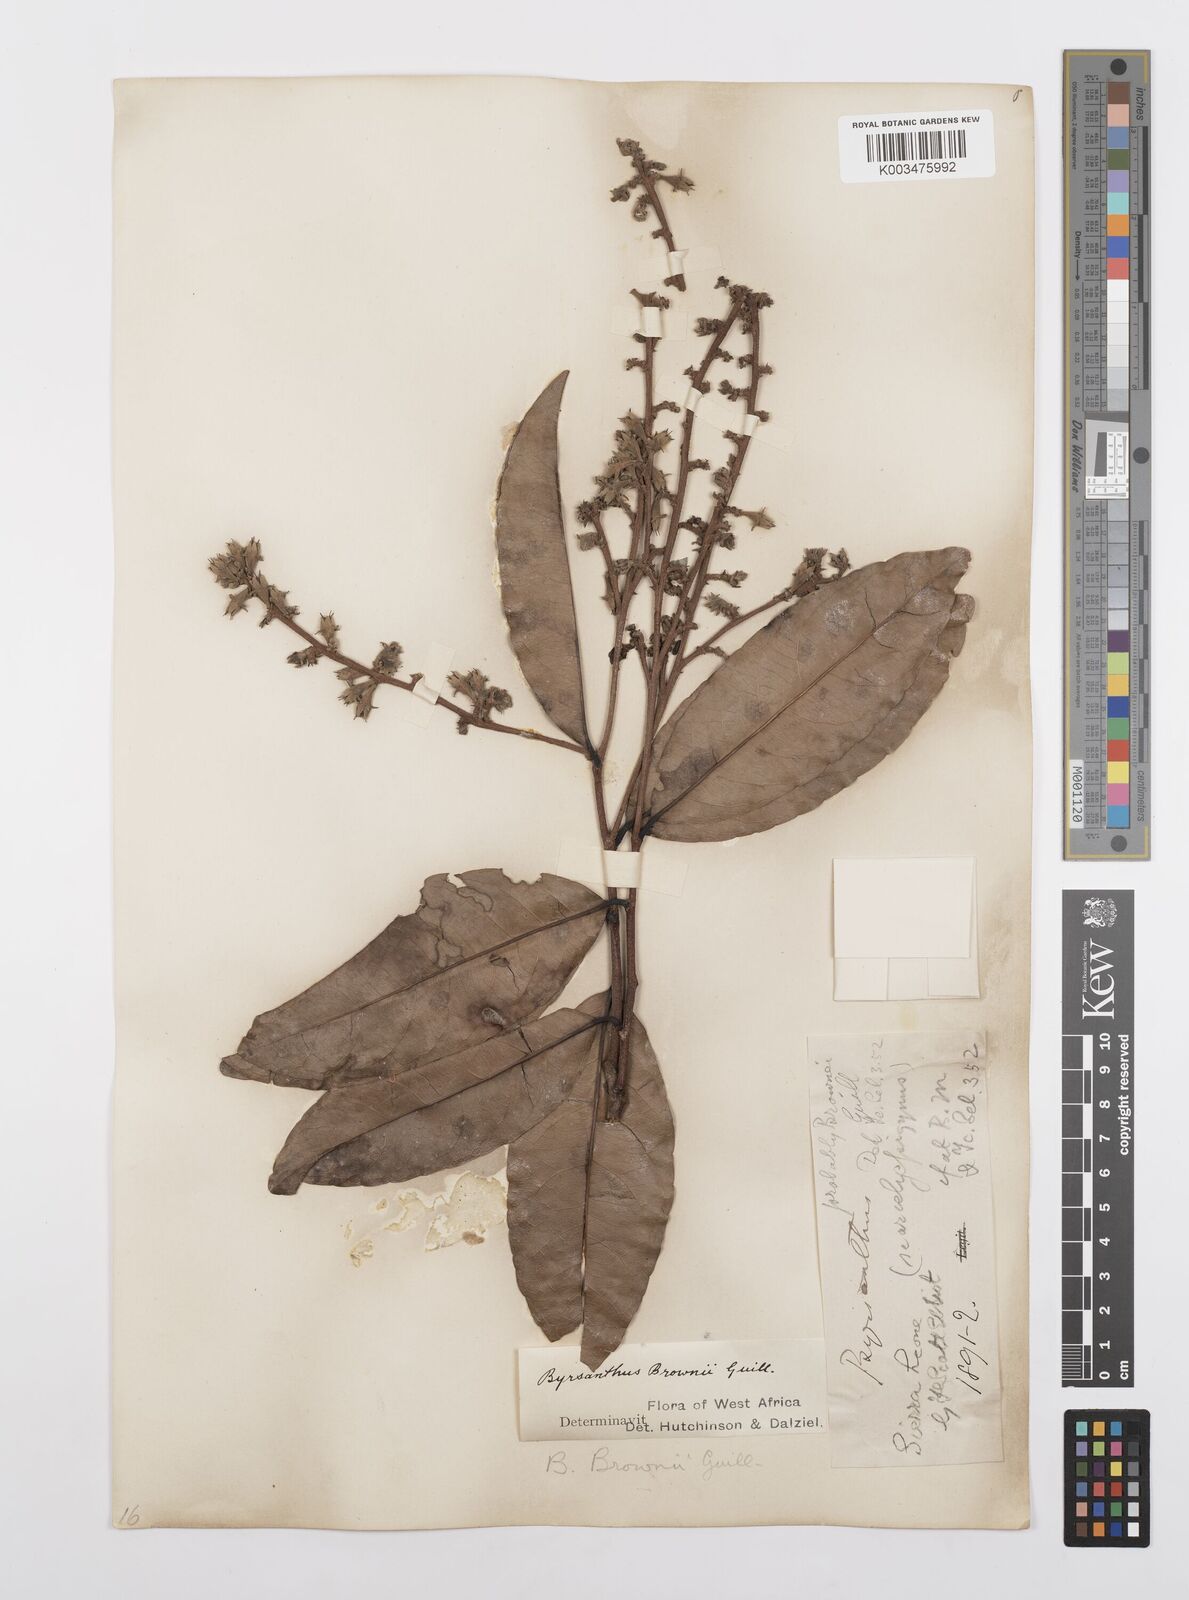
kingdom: Plantae
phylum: Tracheophyta
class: Magnoliopsida
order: Malpighiales
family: Salicaceae
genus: Byrsanthus
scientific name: Byrsanthus brownii
